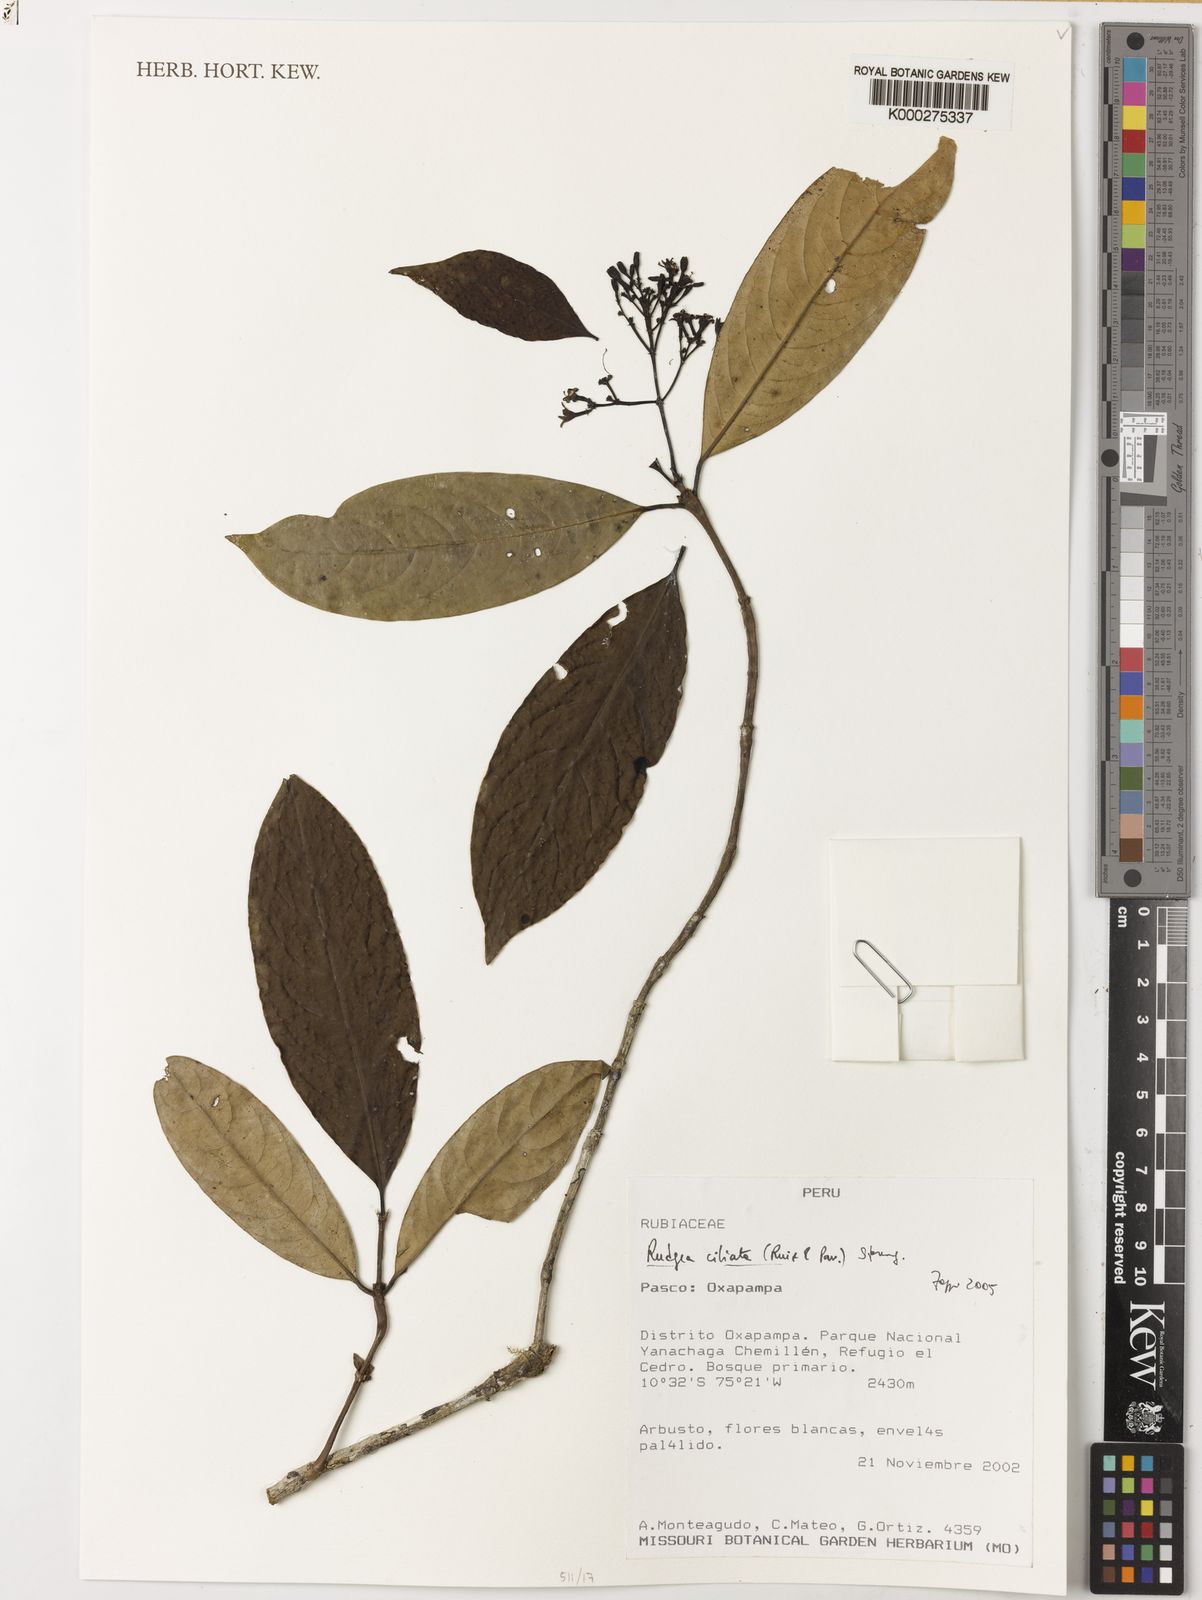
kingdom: Plantae
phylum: Tracheophyta
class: Magnoliopsida
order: Gentianales
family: Rubiaceae
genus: Rudgea
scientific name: Rudgea ciliata
